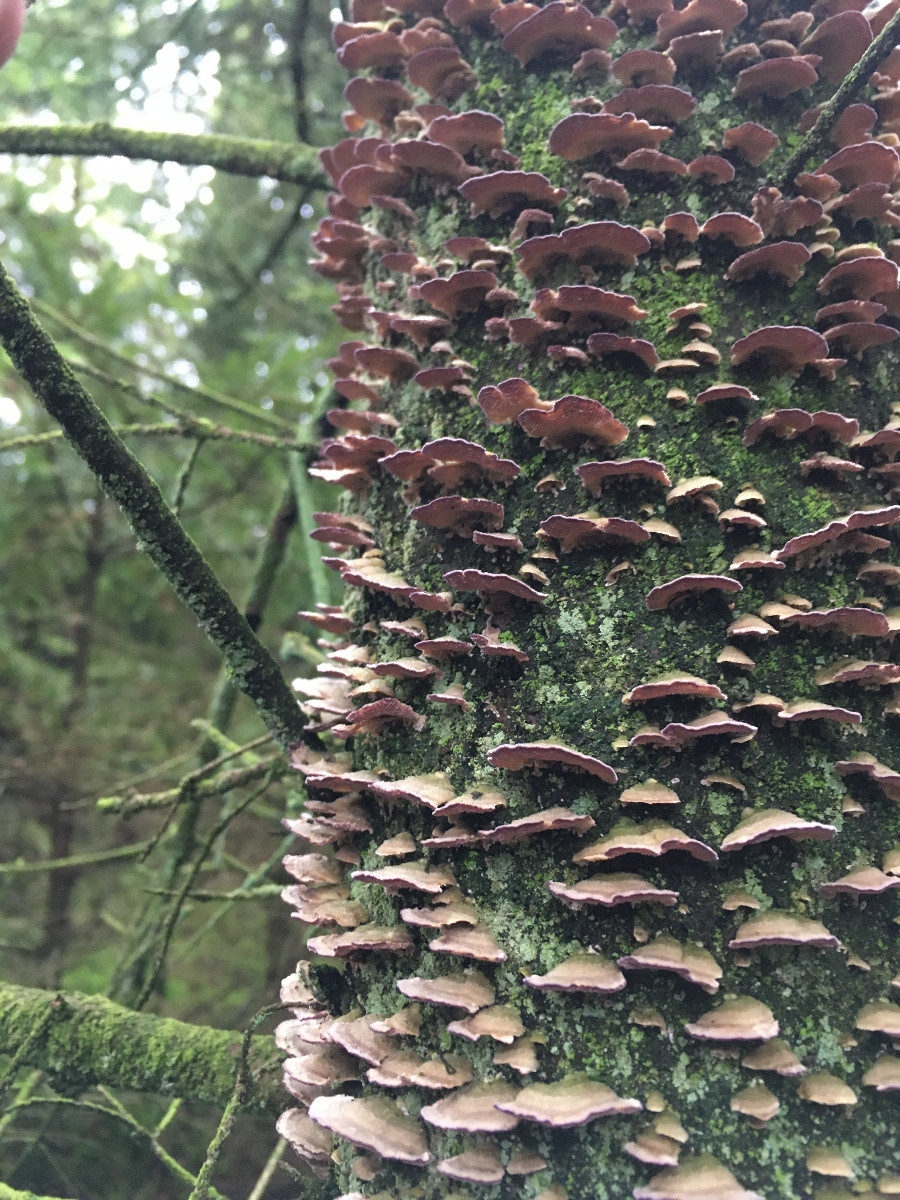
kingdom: Fungi
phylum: Basidiomycota
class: Agaricomycetes
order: Hymenochaetales
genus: Trichaptum
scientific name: Trichaptum abietinum
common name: almindelig violporesvamp
